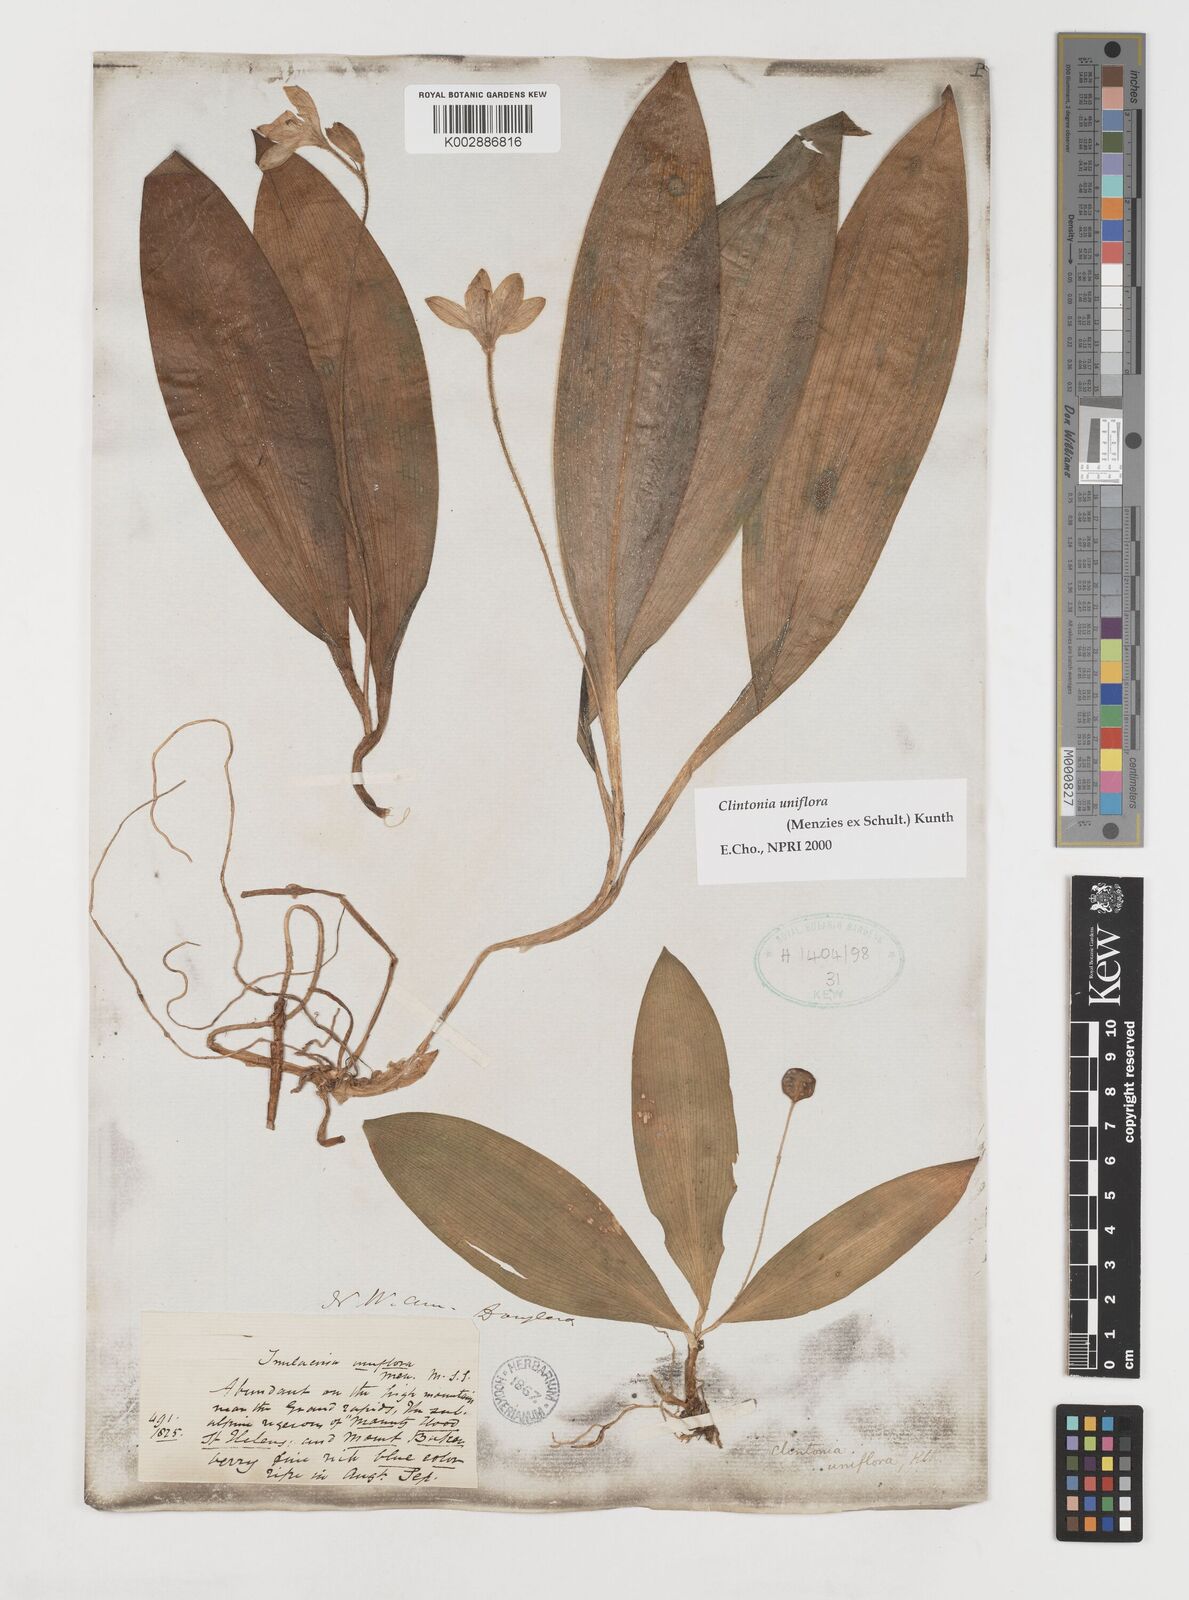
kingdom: Plantae
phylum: Tracheophyta
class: Liliopsida
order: Liliales
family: Liliaceae
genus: Clintonia
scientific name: Clintonia uniflora
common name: Queen's cup
